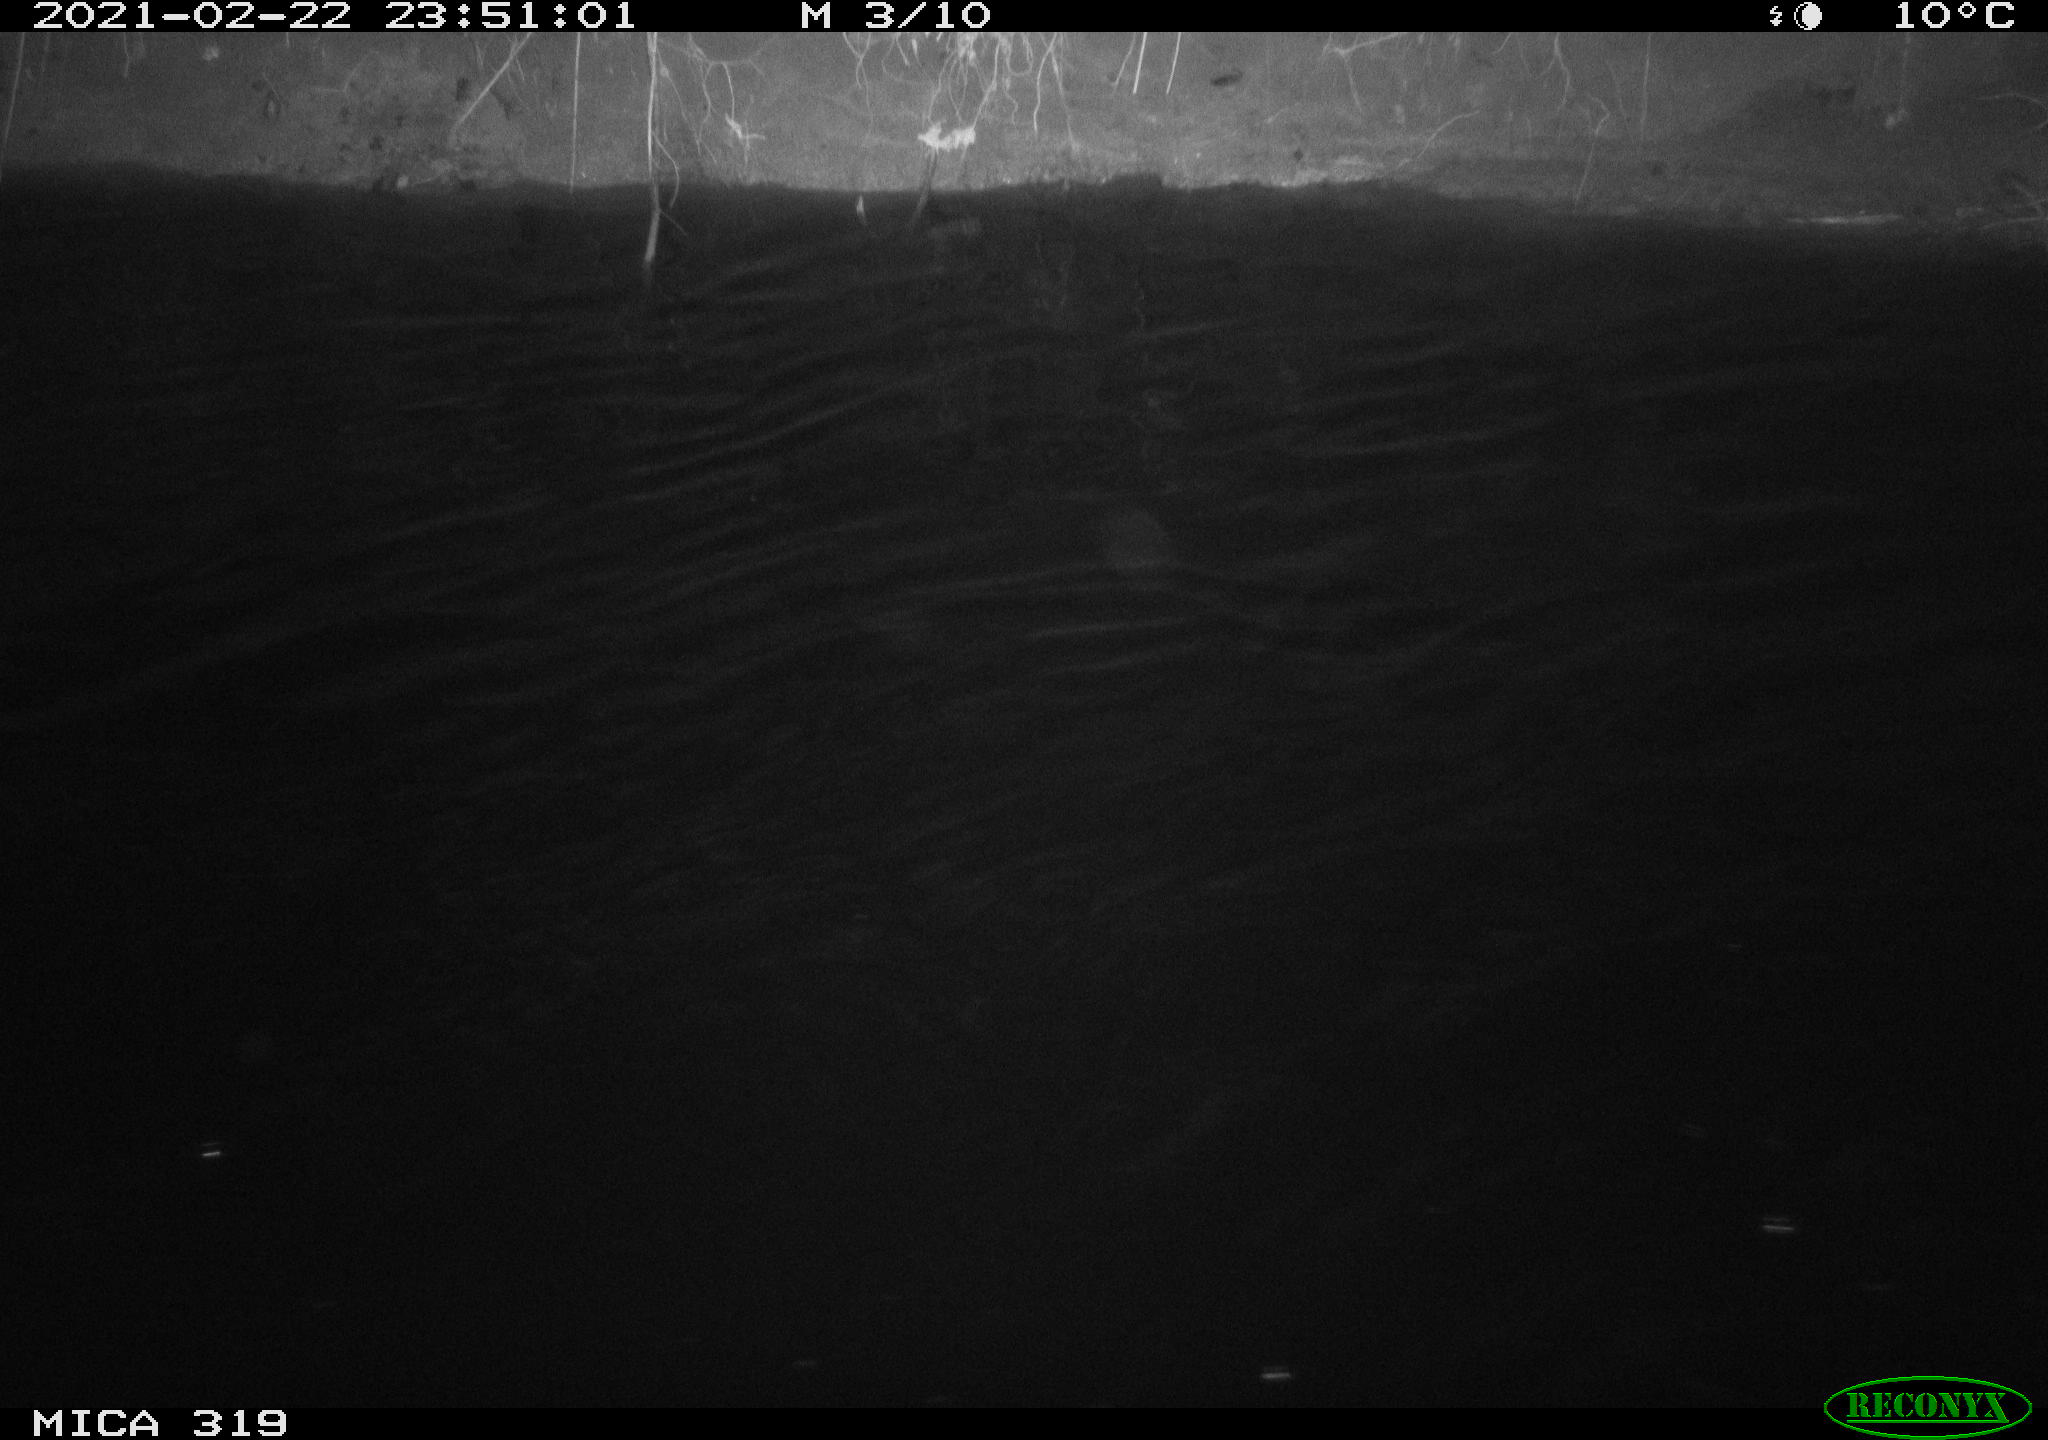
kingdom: Animalia
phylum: Chordata
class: Aves
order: Anseriformes
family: Anatidae
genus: Anas
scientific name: Anas platyrhynchos
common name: Mallard
